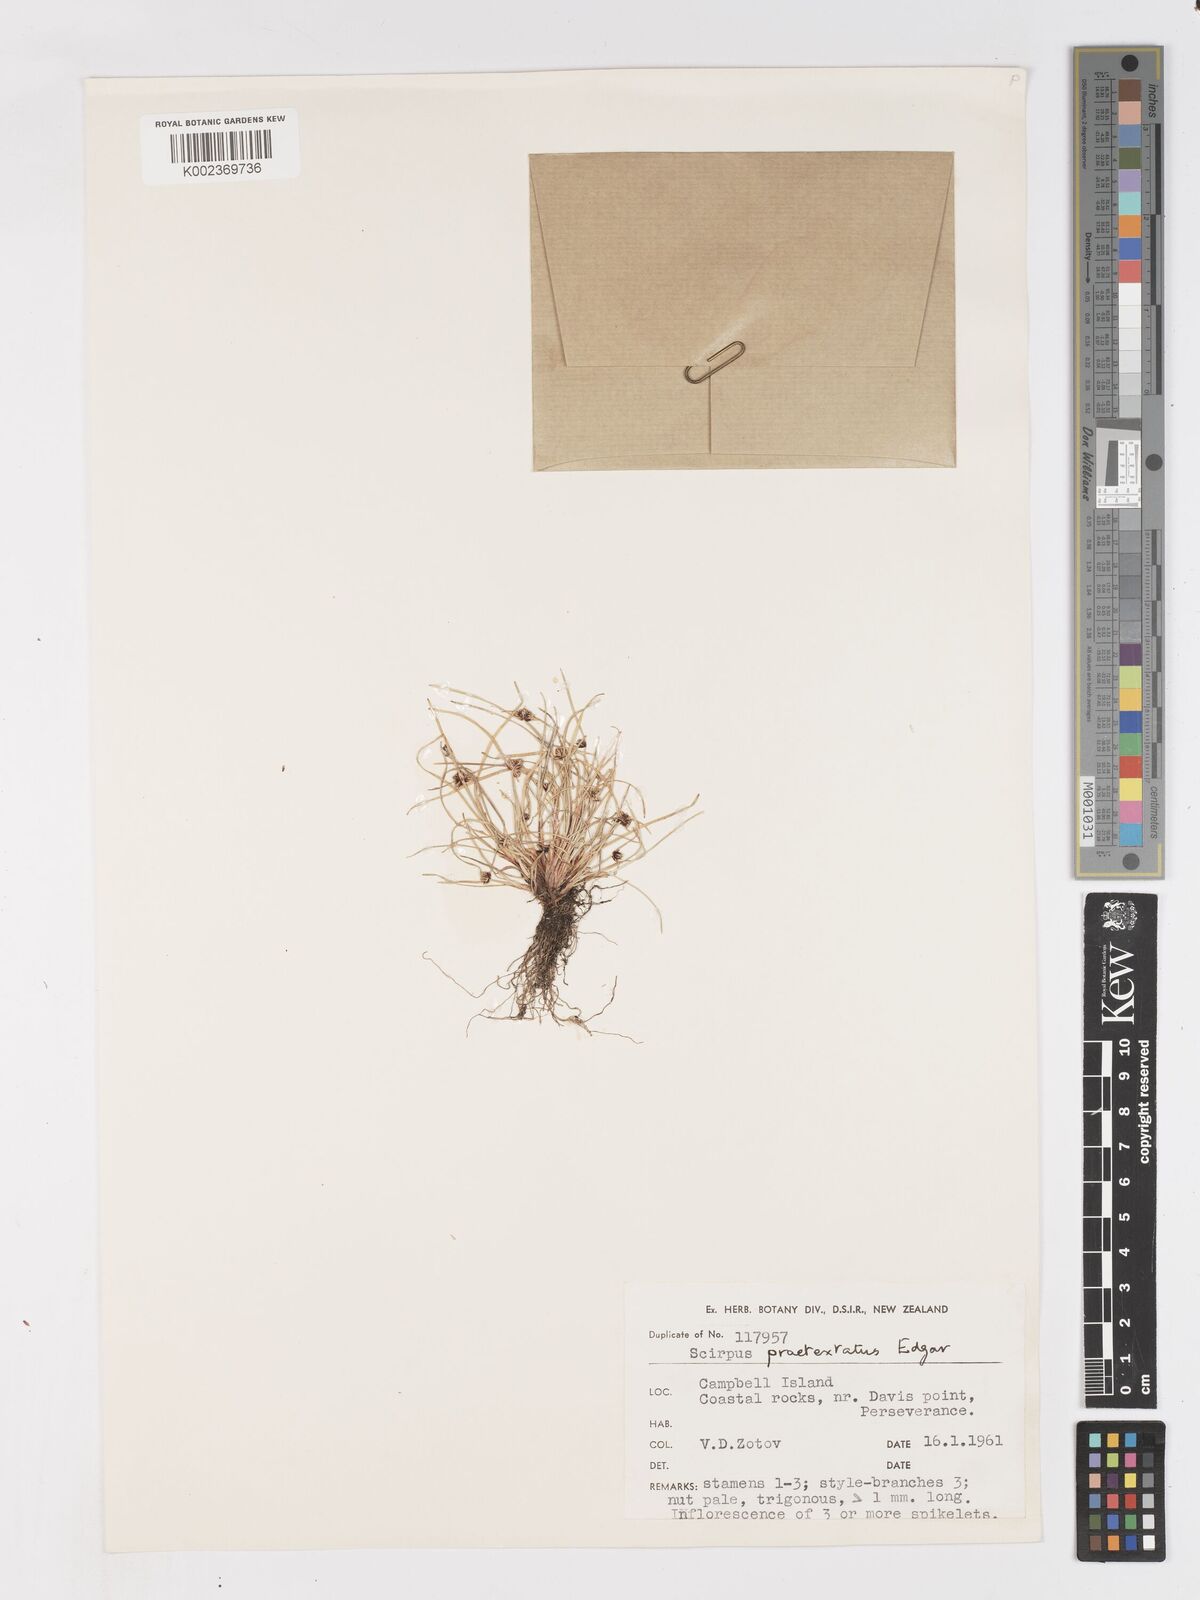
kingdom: Plantae
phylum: Tracheophyta
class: Liliopsida
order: Poales
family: Cyperaceae
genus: Isolepis
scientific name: Isolepis praetextata
